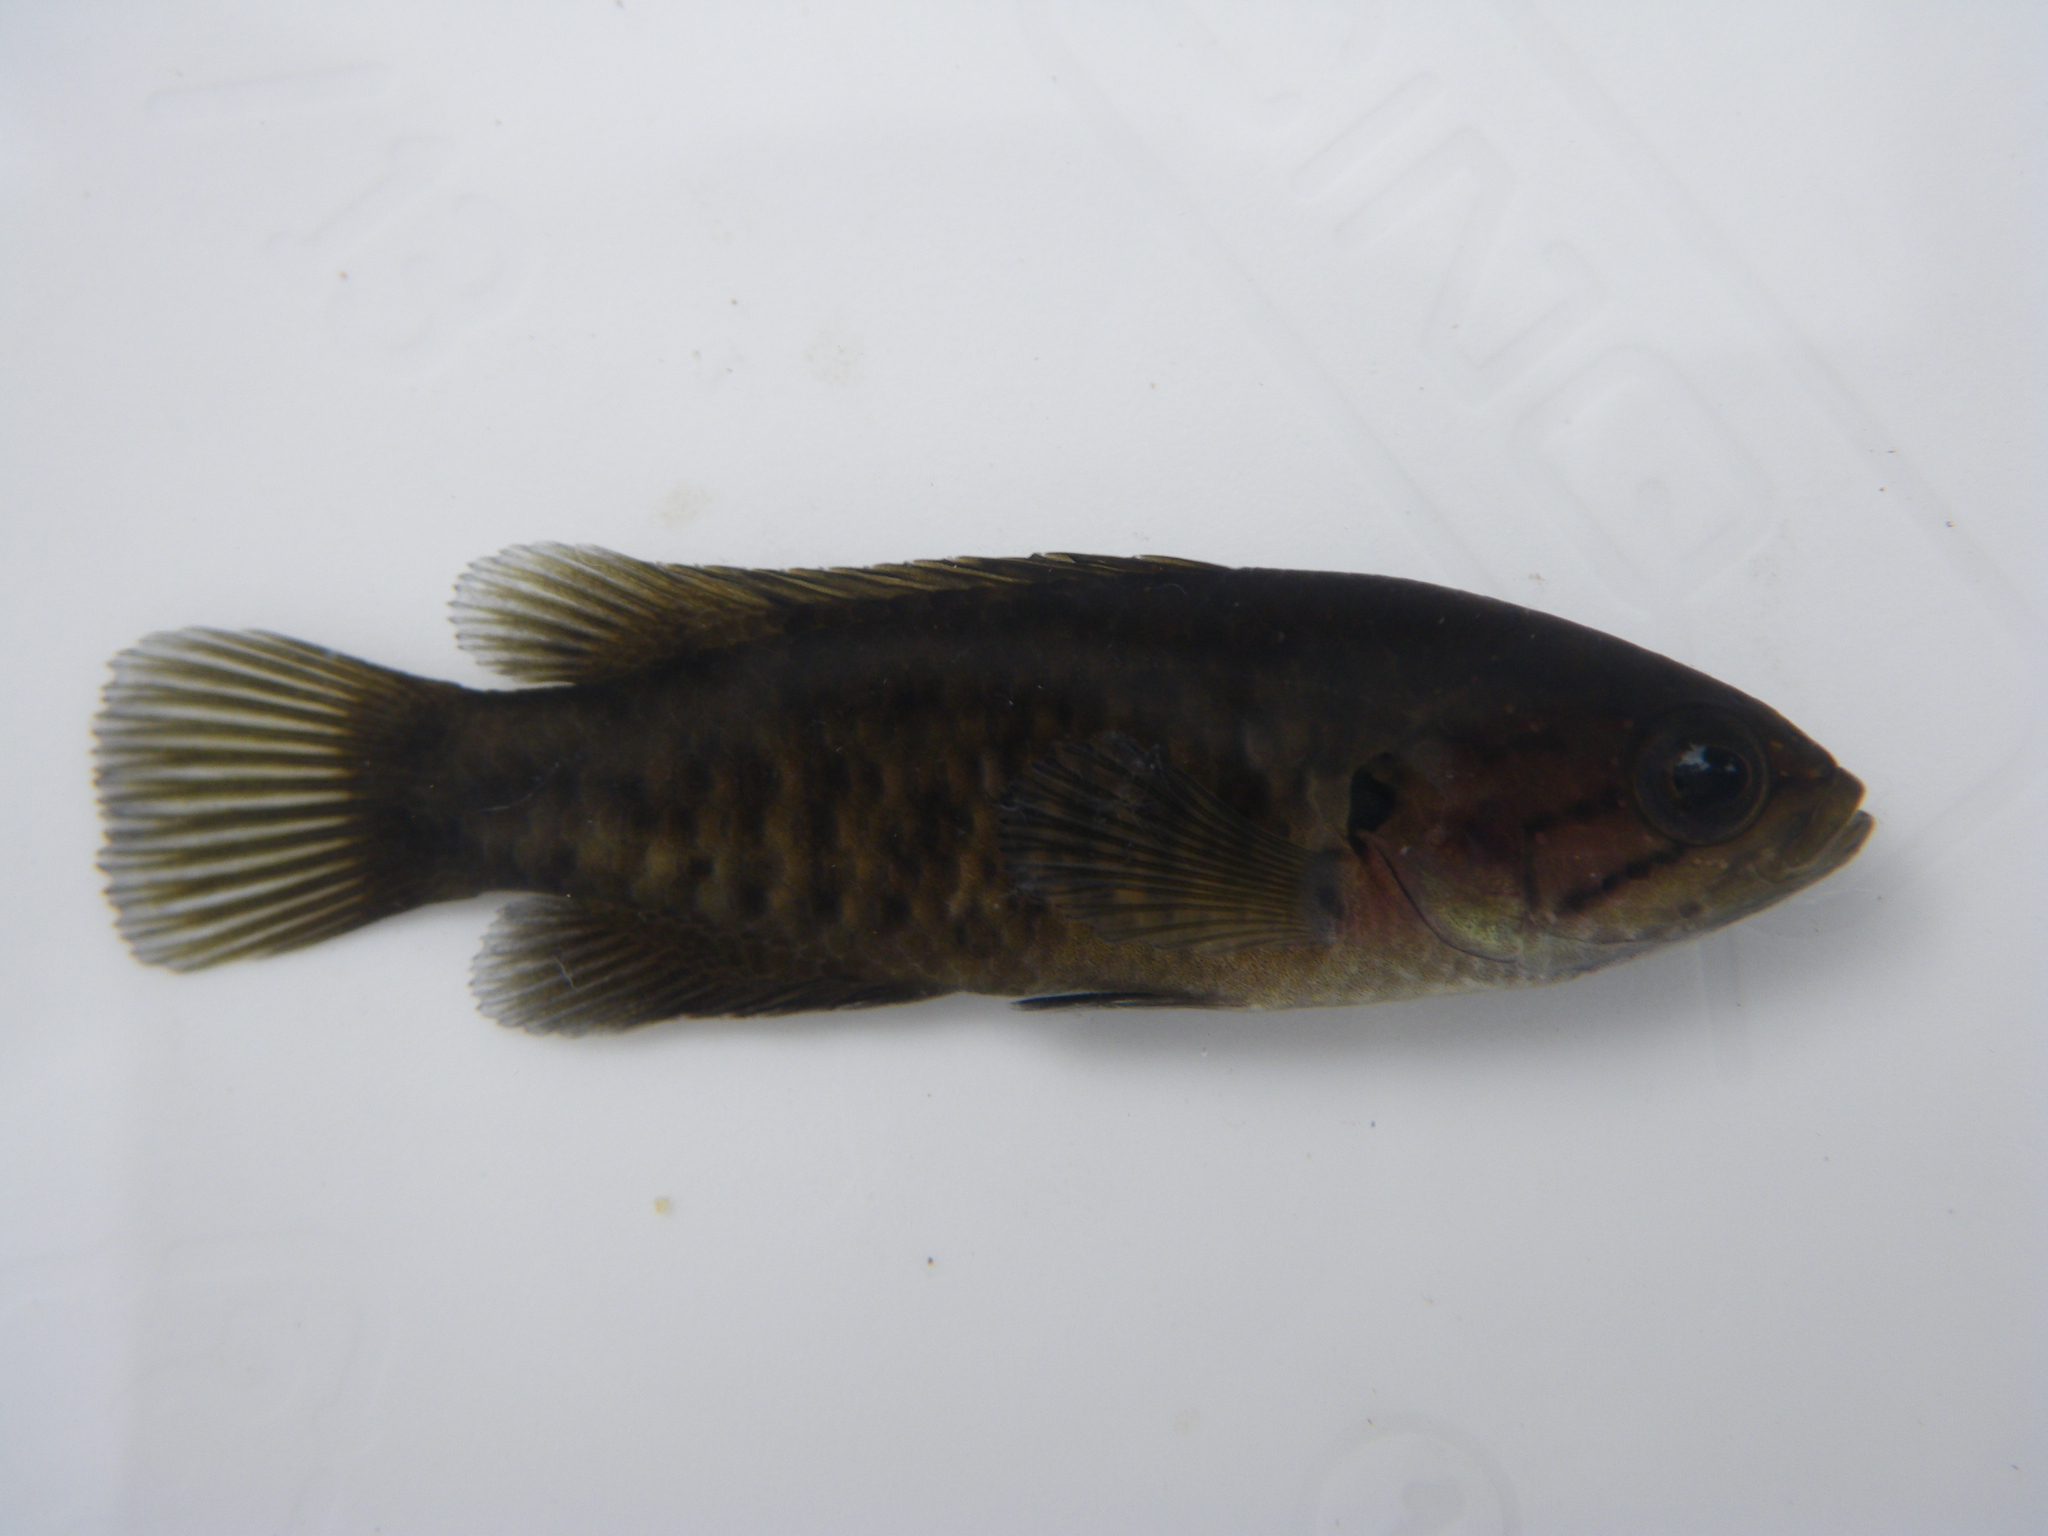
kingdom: Animalia
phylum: Chordata
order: Perciformes
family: Anabantidae
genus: Sandelia
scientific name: Sandelia capensis
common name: Cape kurper
